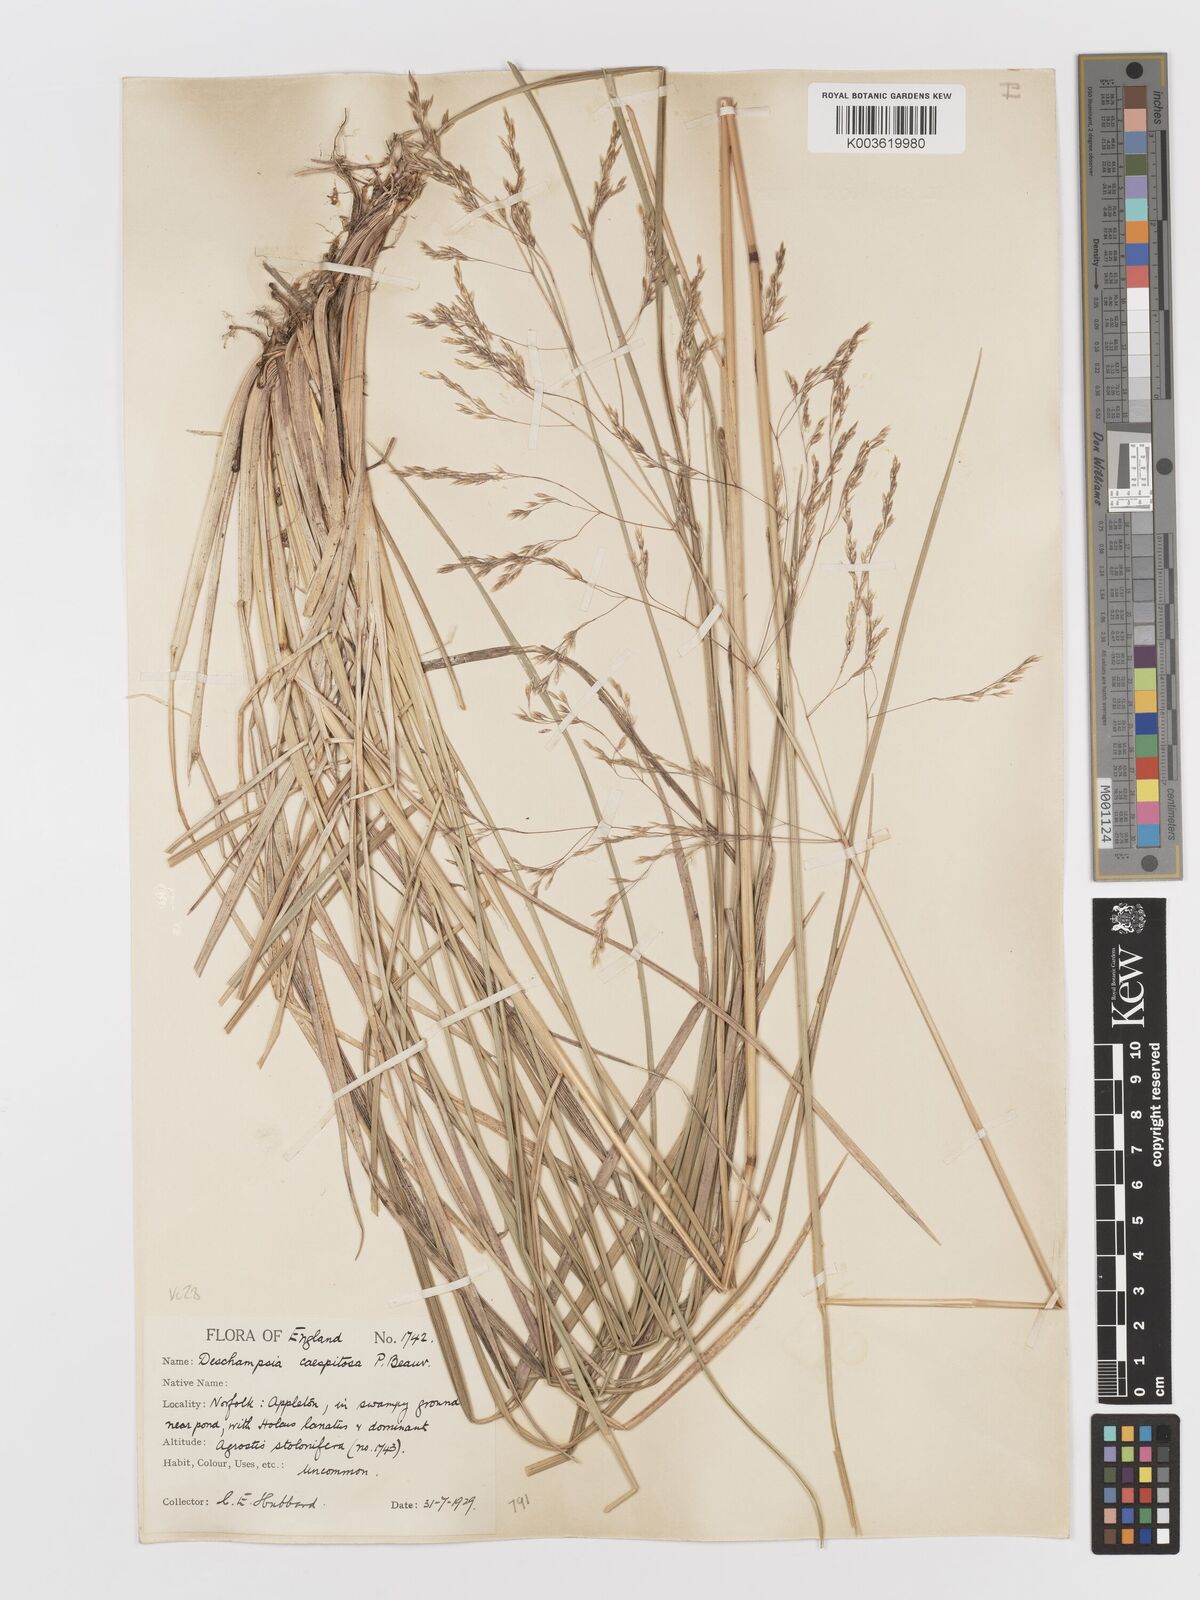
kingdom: Plantae
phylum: Tracheophyta
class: Liliopsida
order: Poales
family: Poaceae
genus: Deschampsia
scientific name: Deschampsia cespitosa
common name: Tufted hair-grass
